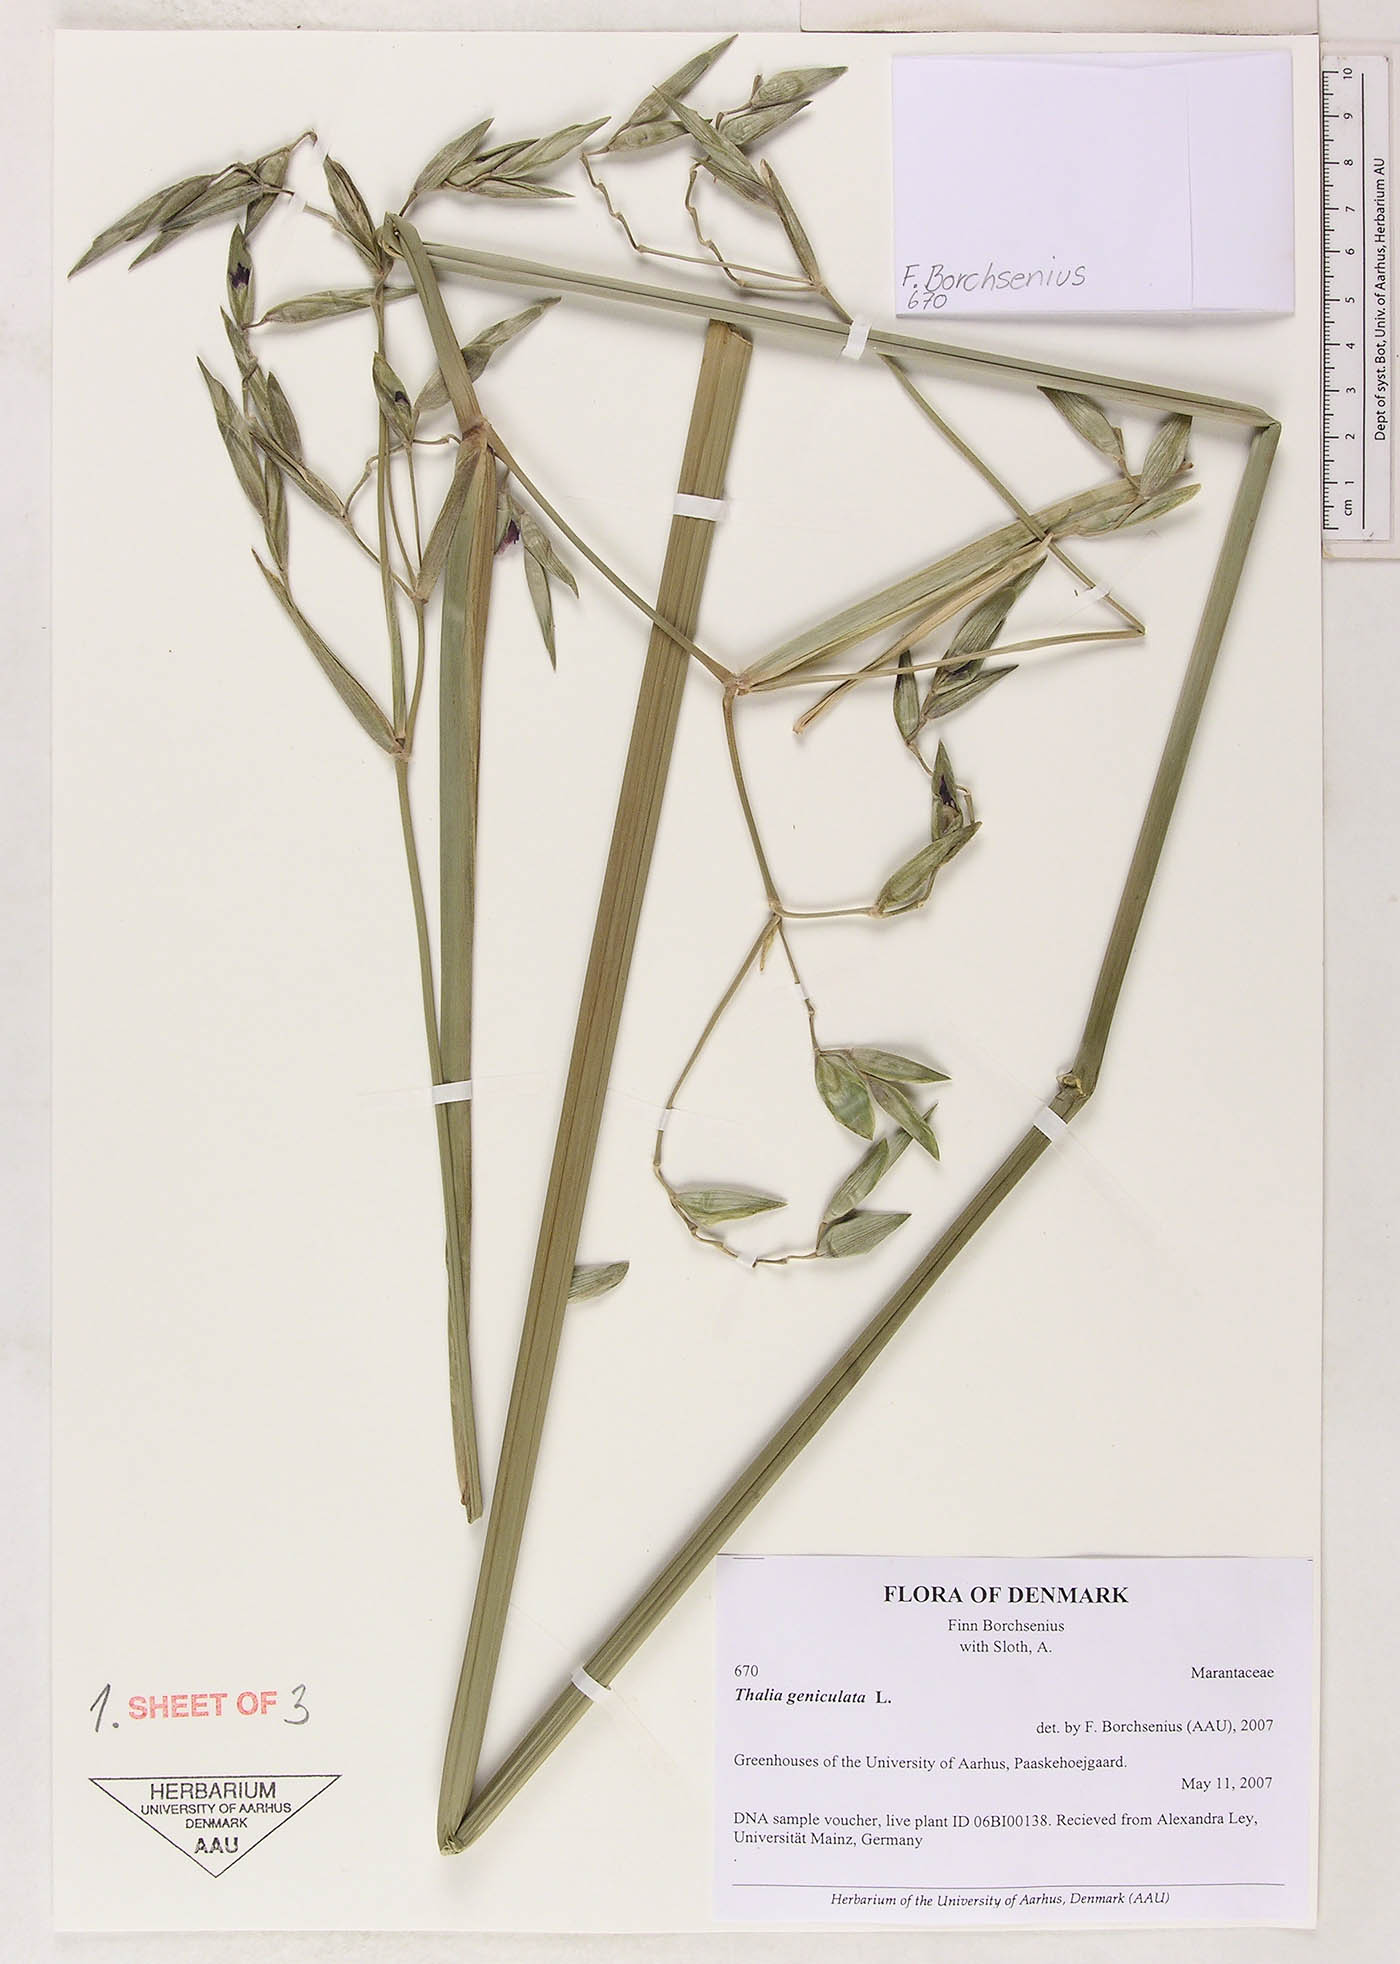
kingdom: Plantae
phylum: Tracheophyta
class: Liliopsida
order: Zingiberales
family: Marantaceae
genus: Thalia
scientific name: Thalia geniculata
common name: Arrowroot
